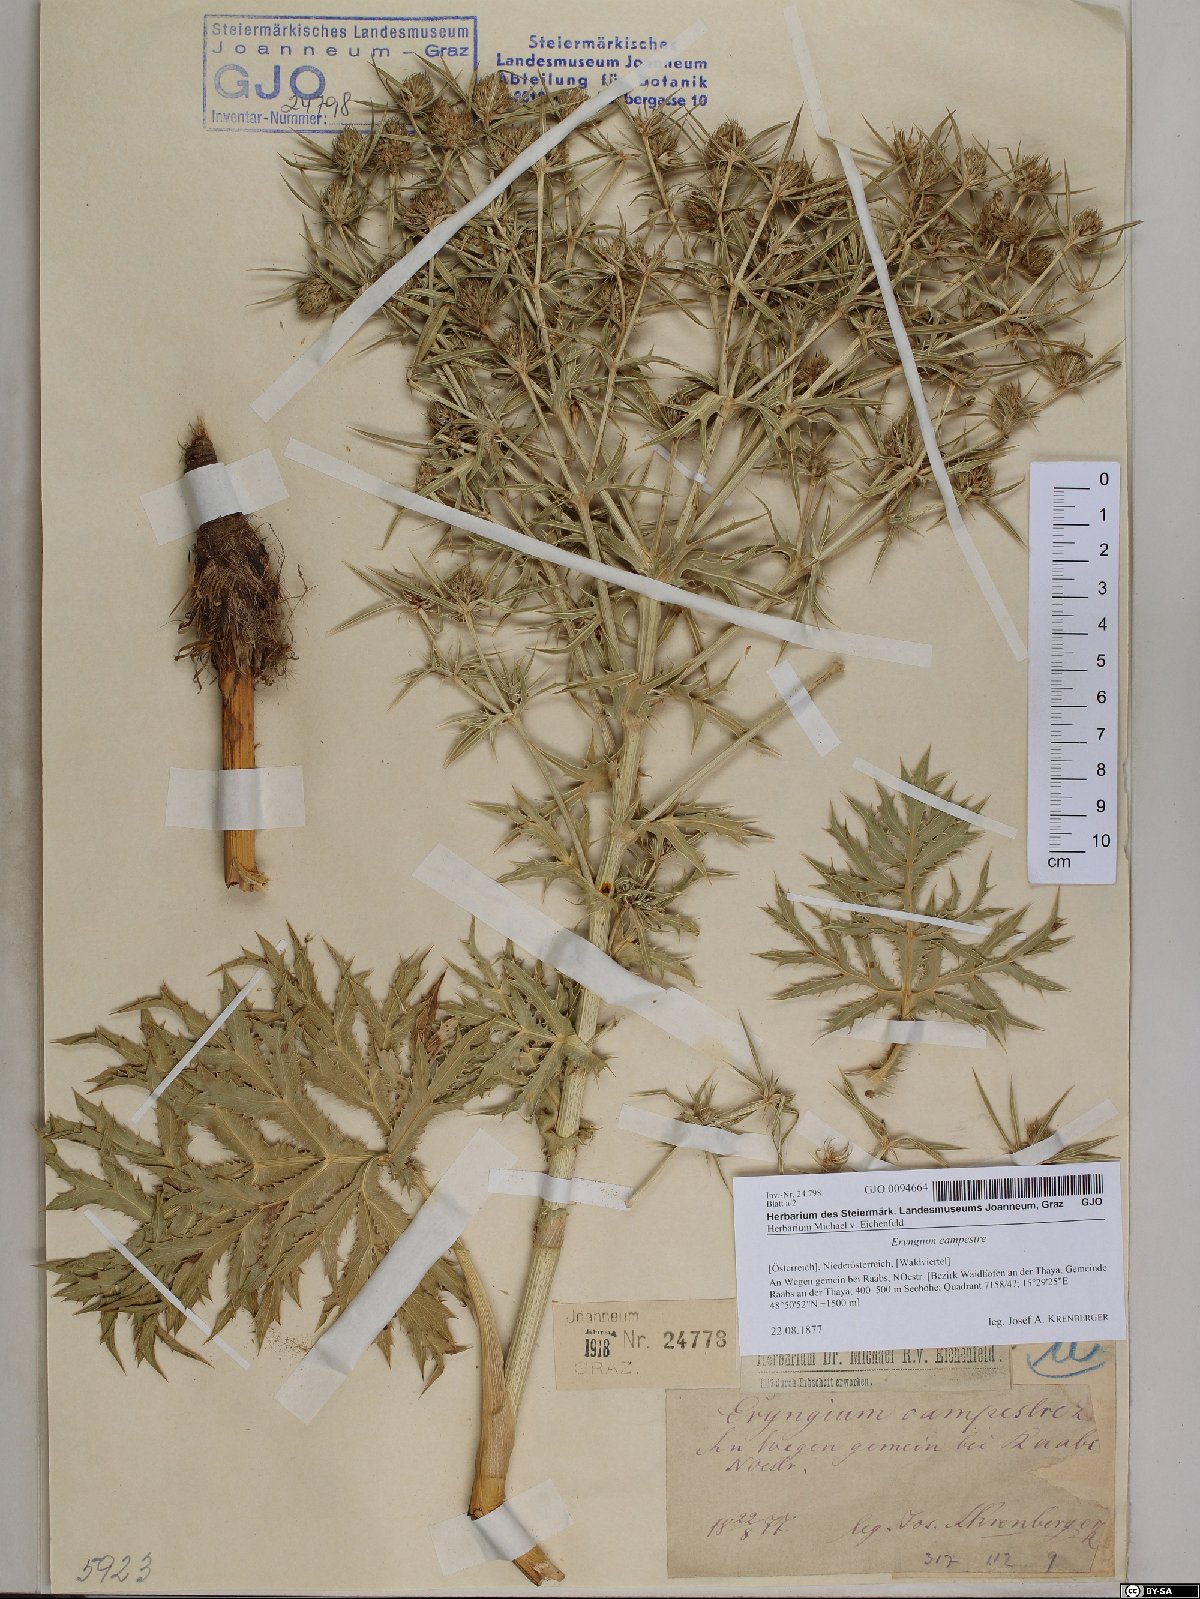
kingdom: Plantae
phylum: Tracheophyta
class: Magnoliopsida
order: Apiales
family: Apiaceae
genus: Eryngium
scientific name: Eryngium campestre
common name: Field eryngo
